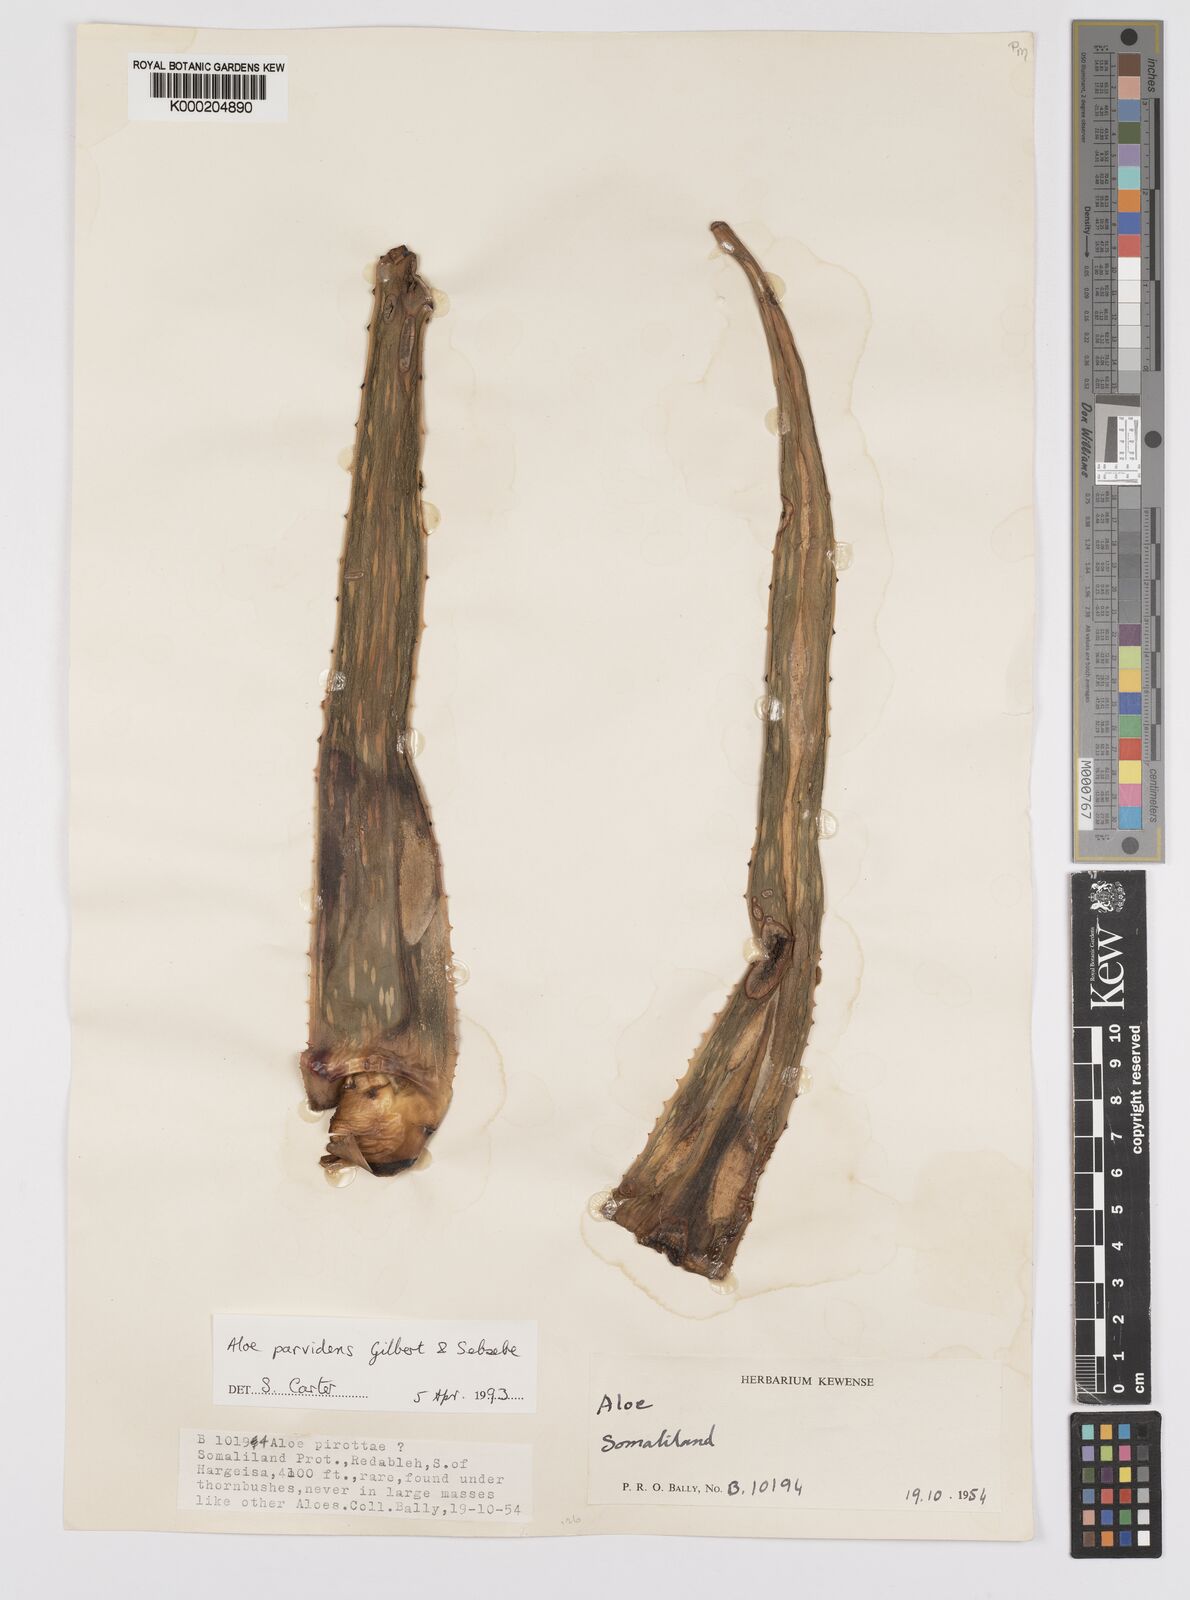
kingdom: Plantae
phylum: Tracheophyta
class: Liliopsida
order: Asparagales
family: Asphodelaceae
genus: Aloe
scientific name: Aloe parvidens
